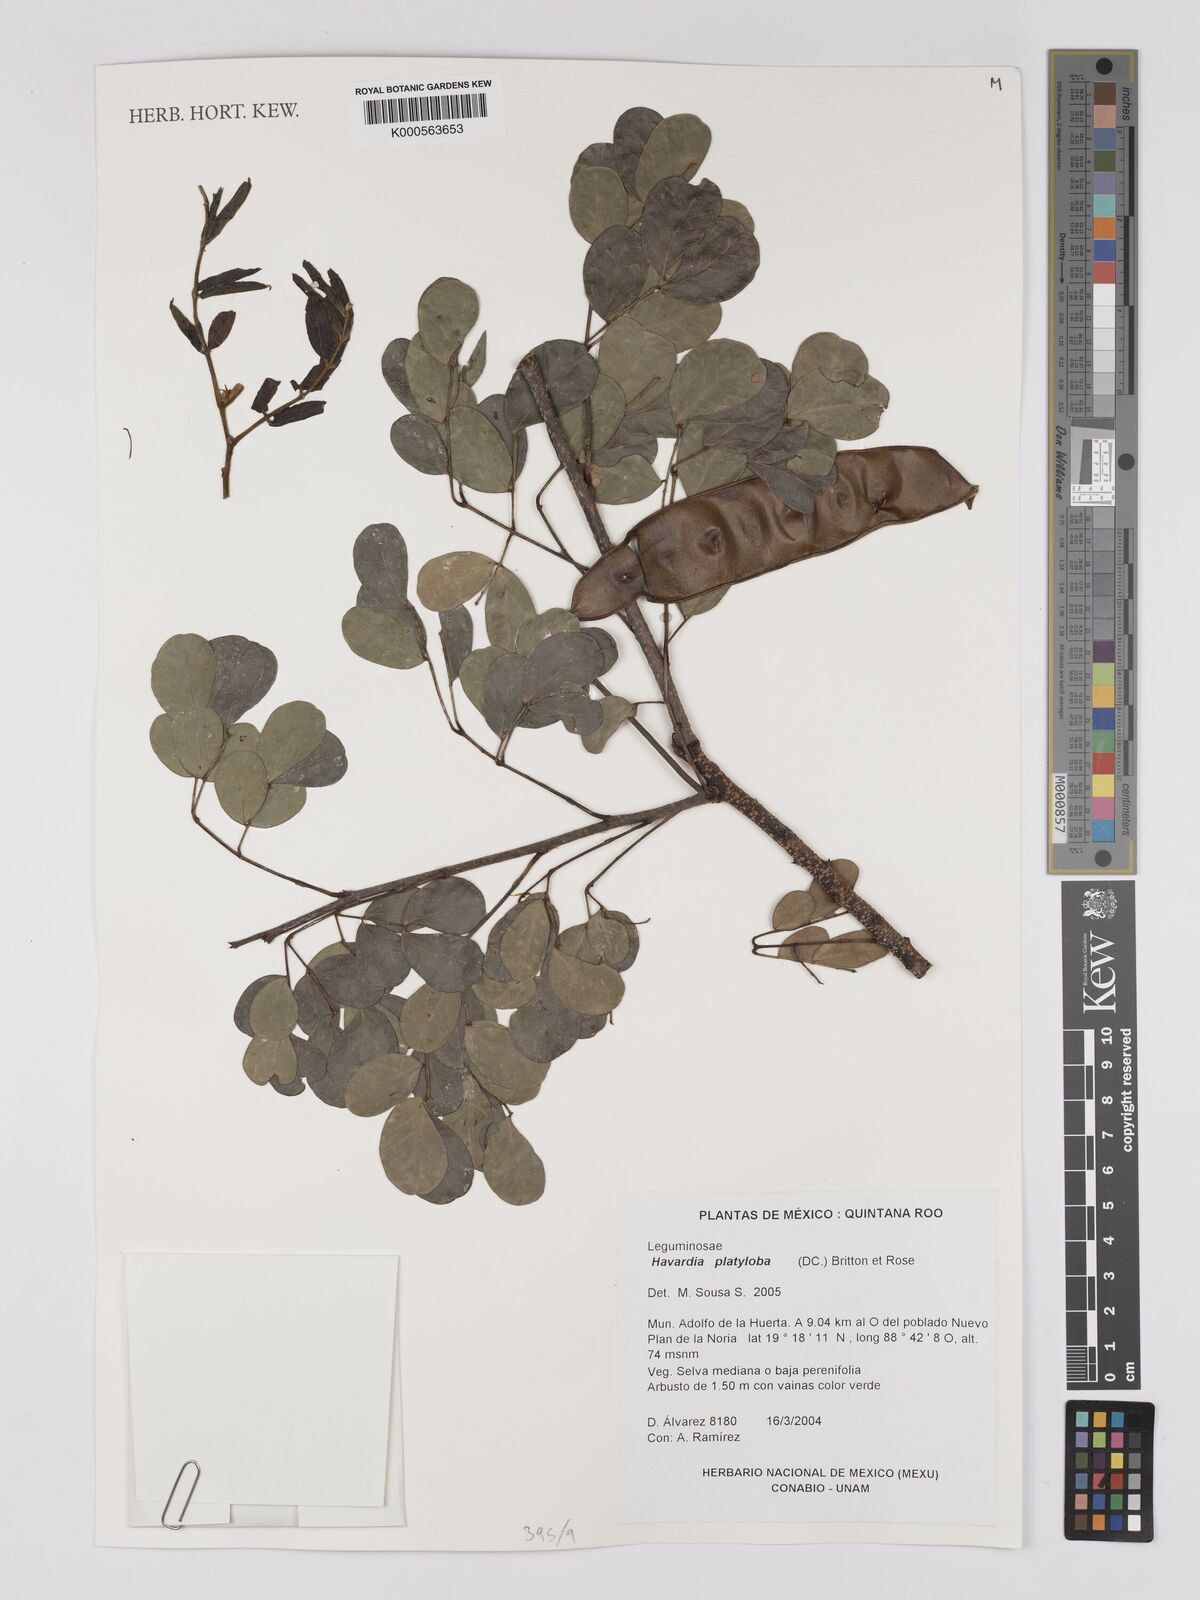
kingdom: Plantae
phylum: Tracheophyta
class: Magnoliopsida
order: Fabales
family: Fabaceae
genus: Havardia
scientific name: Havardia platyloba
